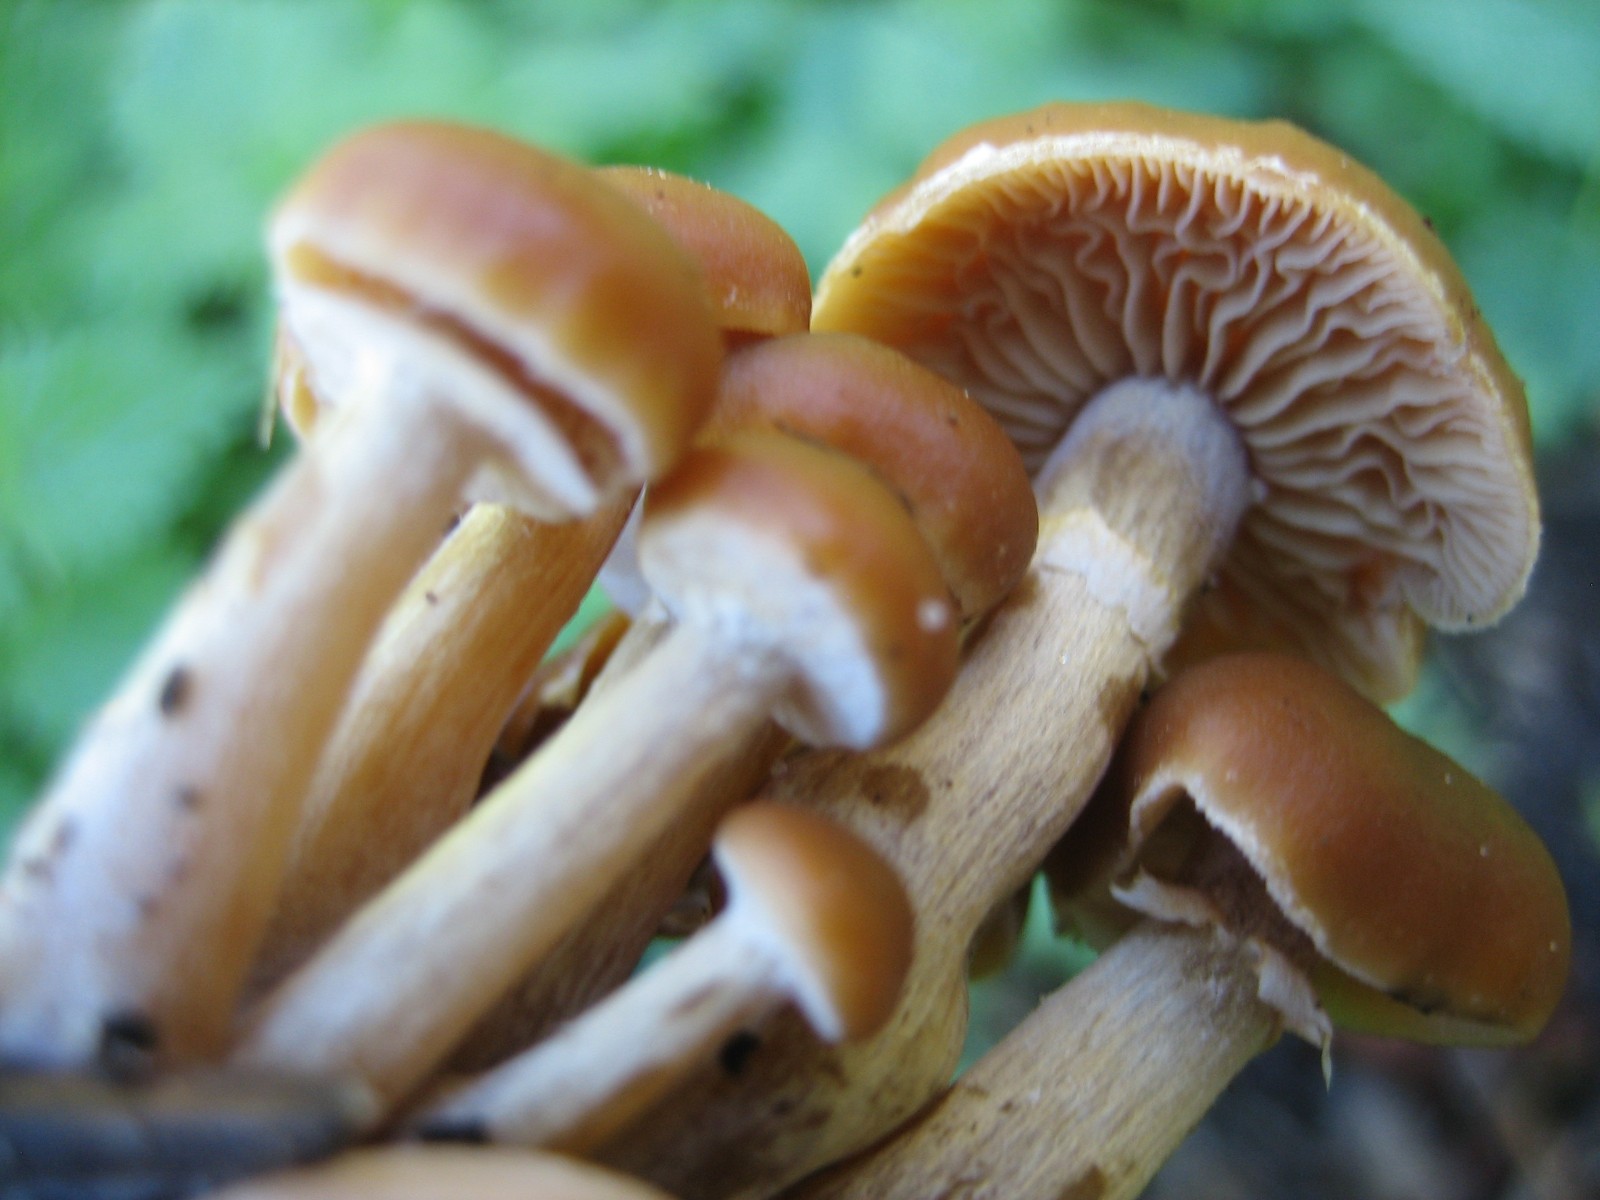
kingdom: Fungi
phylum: Basidiomycota
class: Agaricomycetes
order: Agaricales
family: Hymenogastraceae
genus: Galerina
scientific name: Galerina marginata
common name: randbæltet hjelmhat
